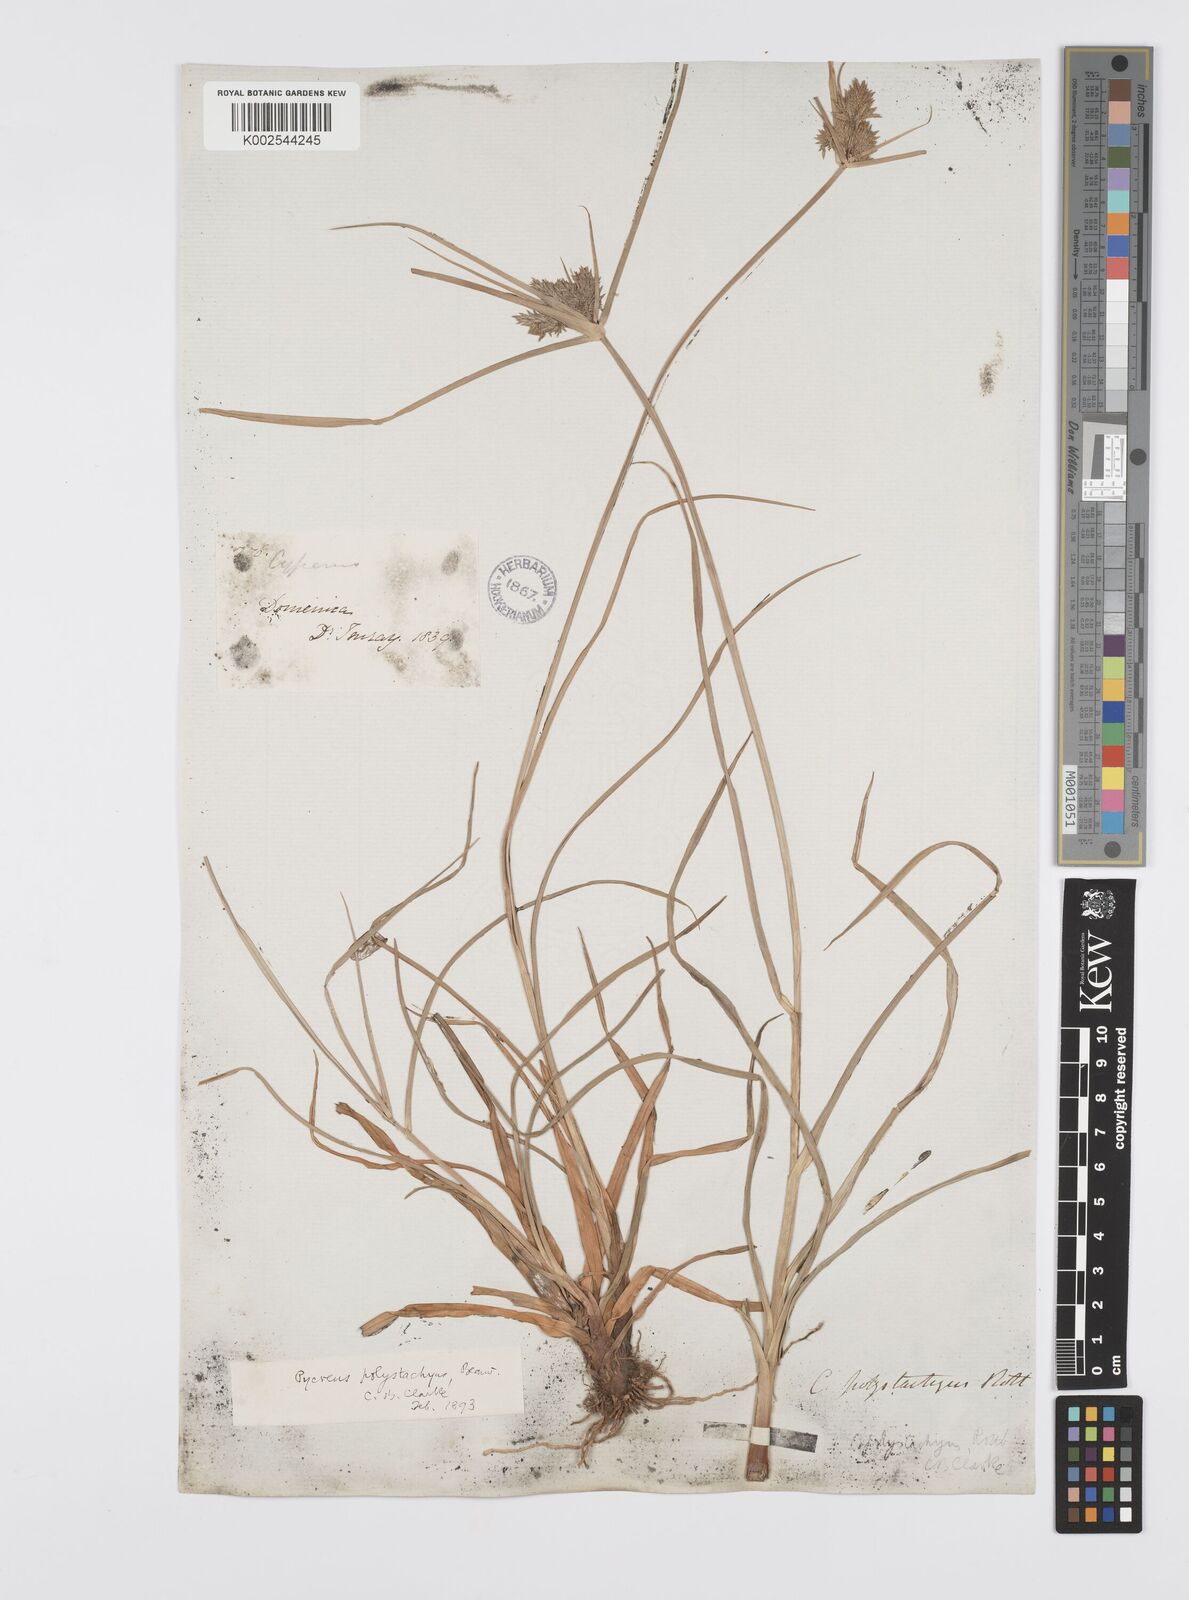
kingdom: Plantae
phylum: Tracheophyta
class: Liliopsida
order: Poales
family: Cyperaceae
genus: Cyperus
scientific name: Cyperus polystachyos
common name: Bunchy flat sedge
